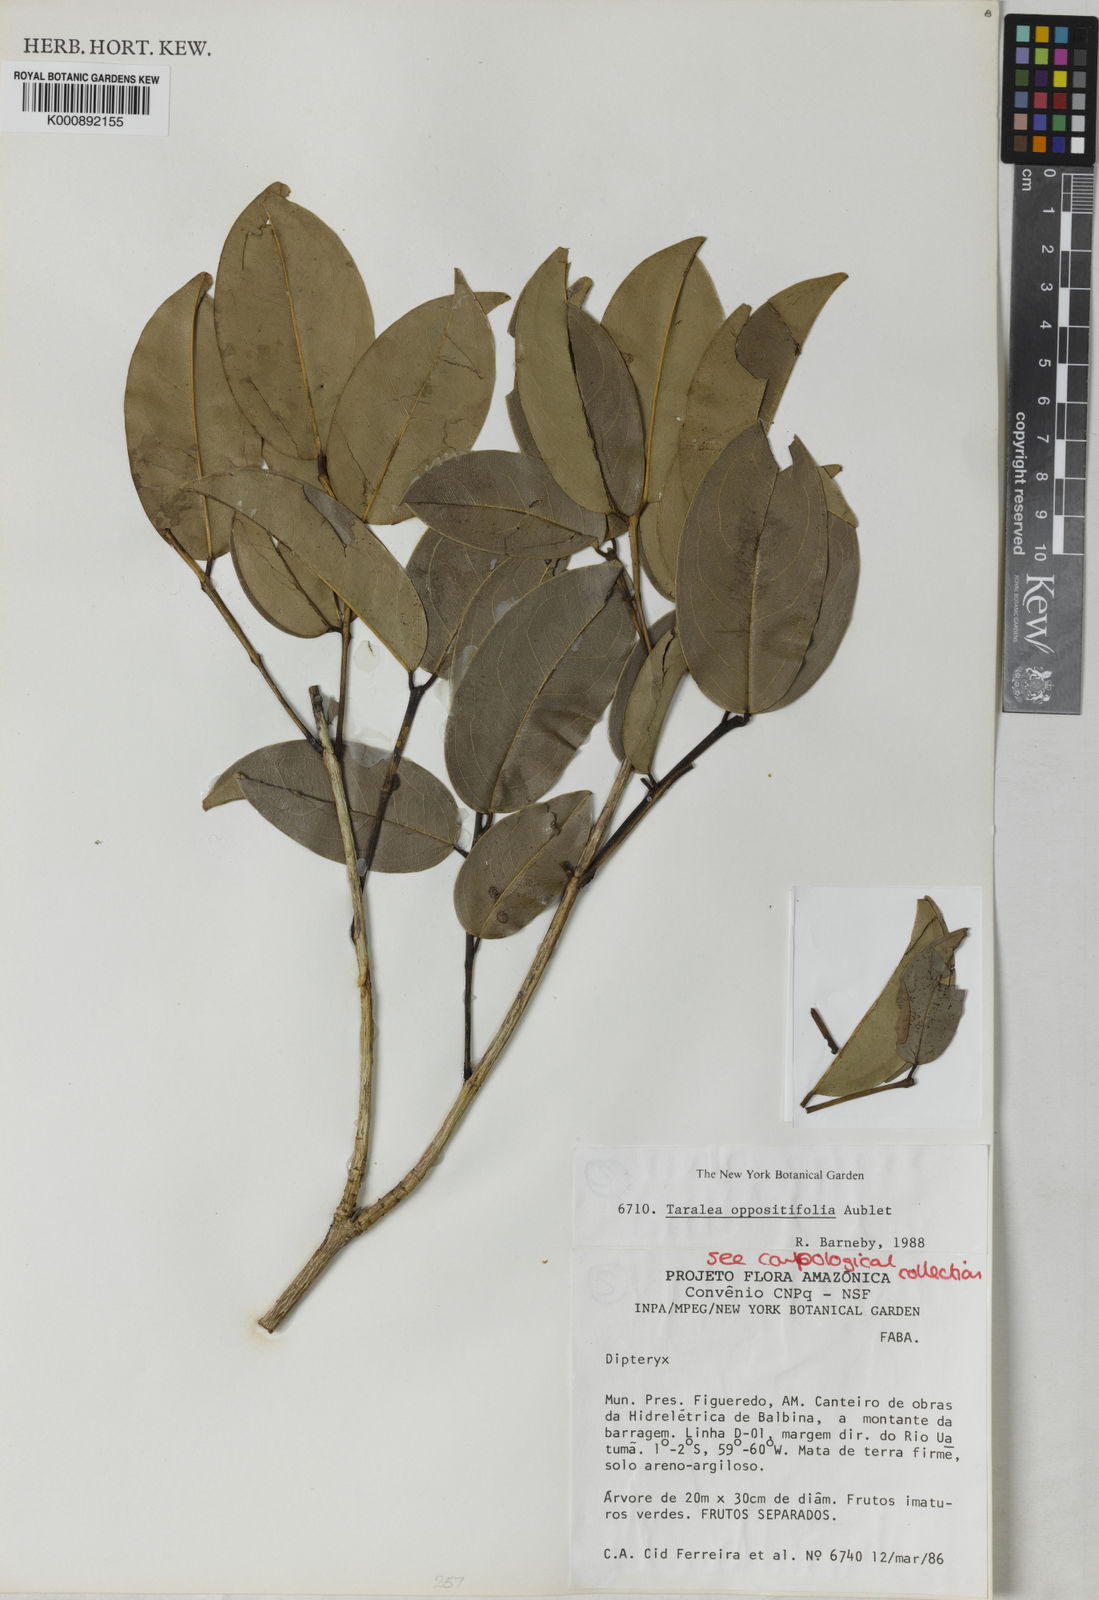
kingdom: Plantae
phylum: Tracheophyta
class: Magnoliopsida
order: Fabales
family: Fabaceae
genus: Taralea
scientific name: Taralea oppositifolia
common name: Tonka
